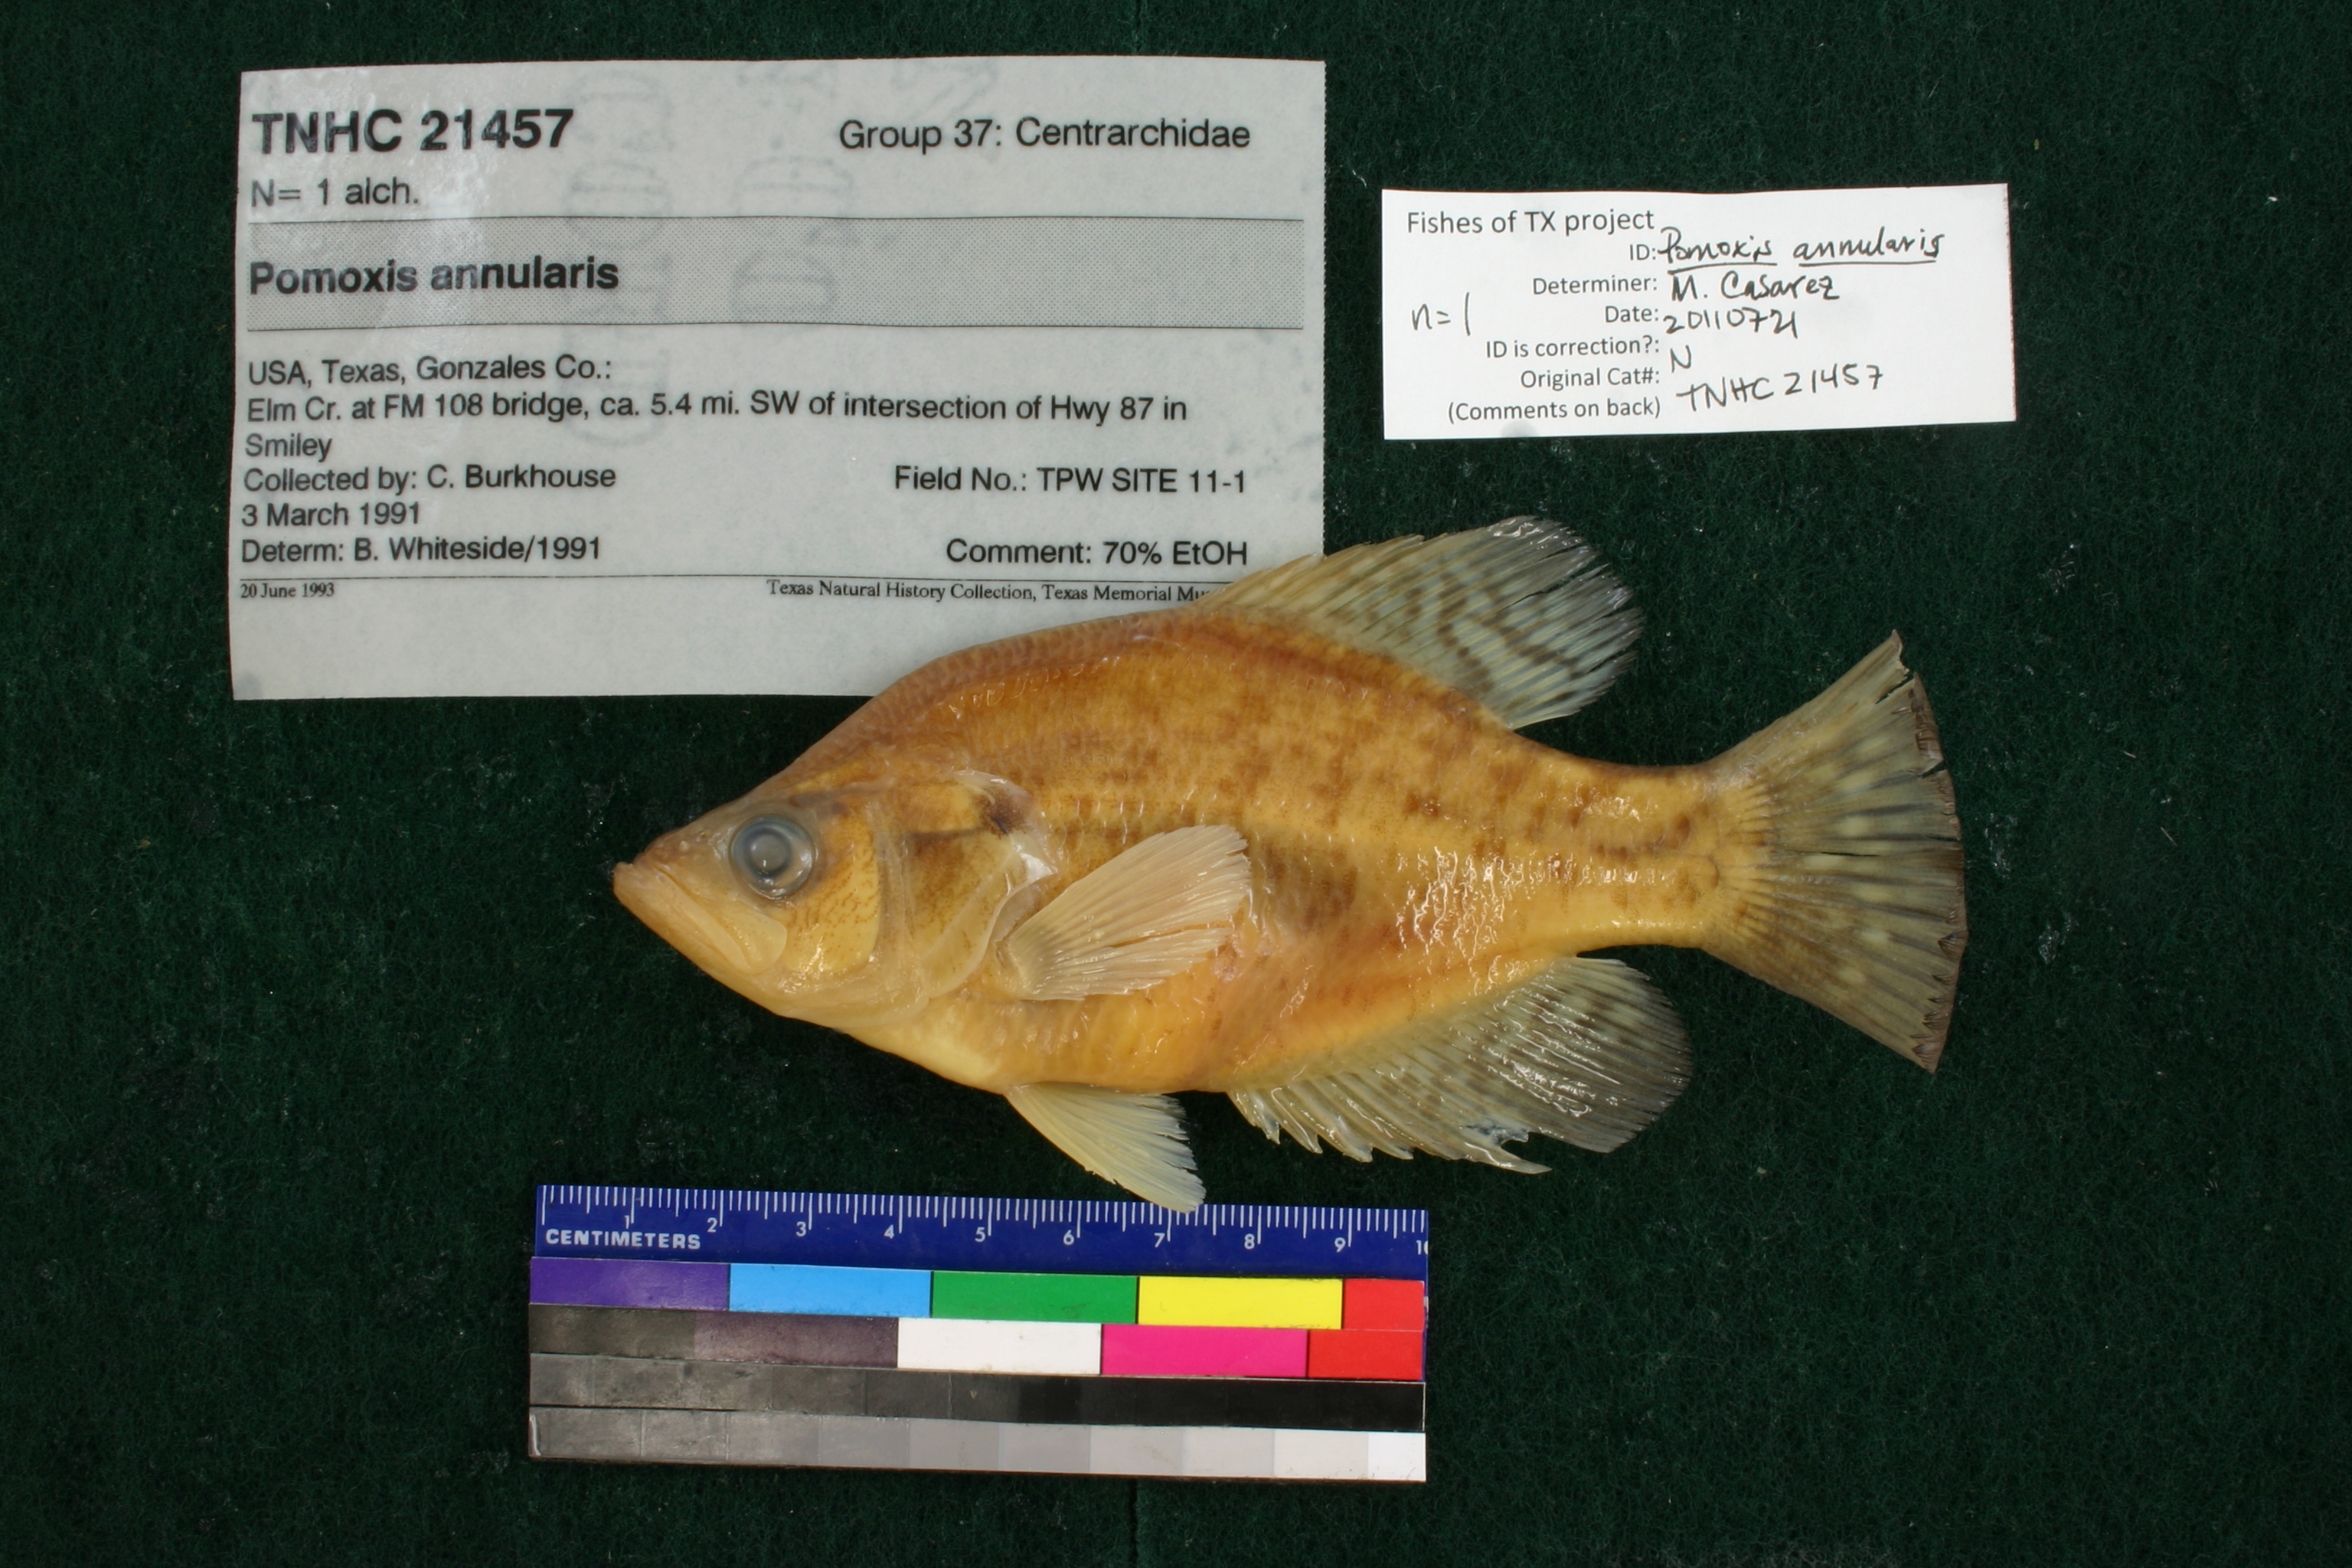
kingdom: Animalia
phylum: Chordata
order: Perciformes
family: Centrarchidae
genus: Pomoxis
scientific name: Pomoxis annularis
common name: White crappie
